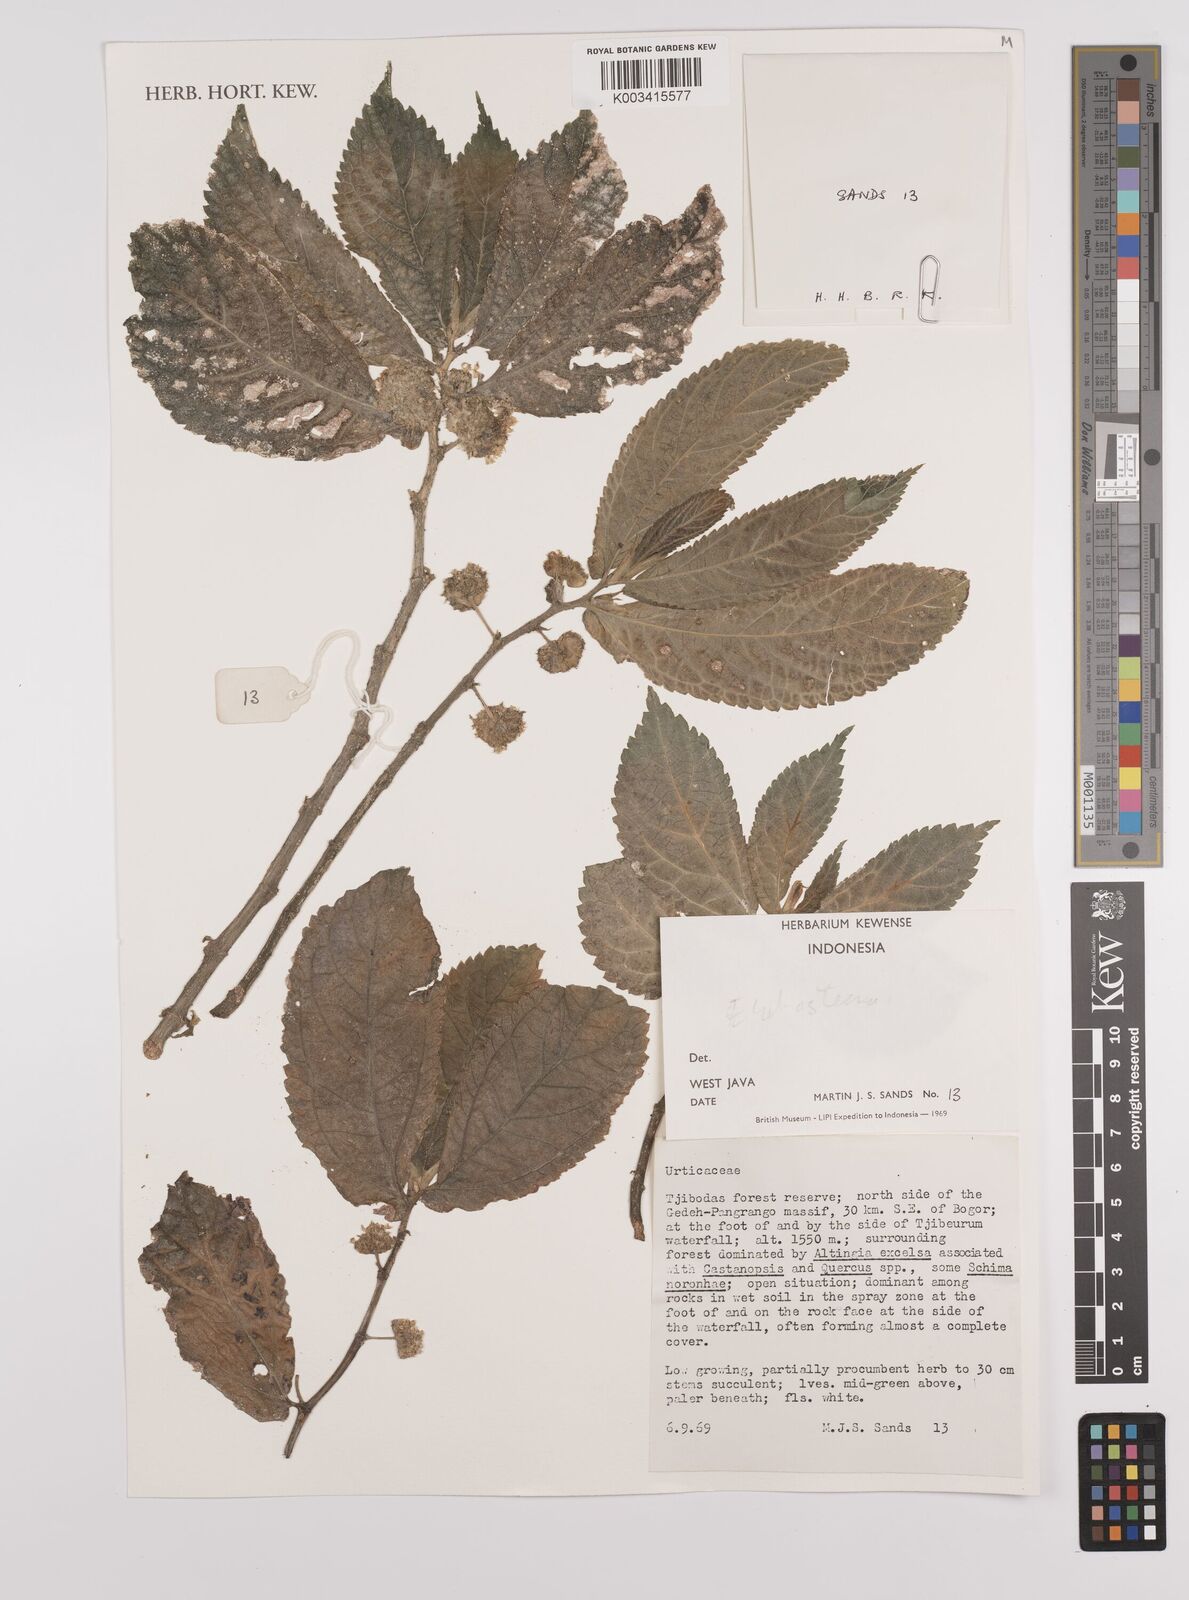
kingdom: Plantae
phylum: Tracheophyta
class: Magnoliopsida
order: Rosales
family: Urticaceae
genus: Elatostema
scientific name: Elatostema
